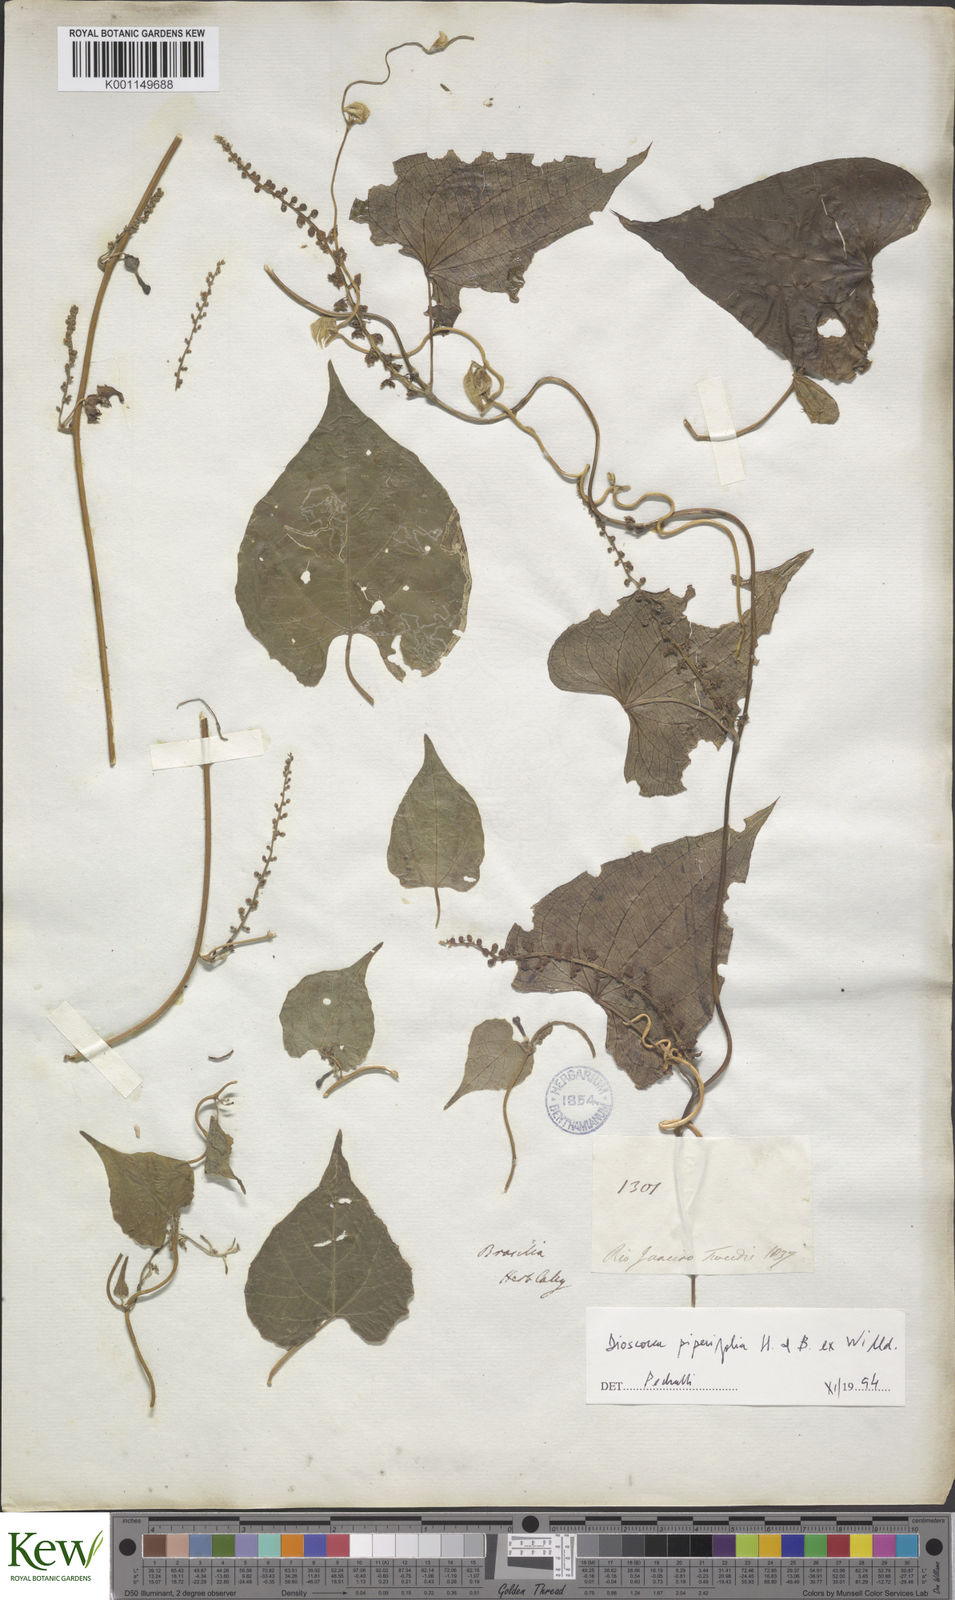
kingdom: Plantae
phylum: Tracheophyta
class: Liliopsida
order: Dioscoreales
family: Dioscoreaceae
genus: Dioscorea
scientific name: Dioscorea grandiflora
